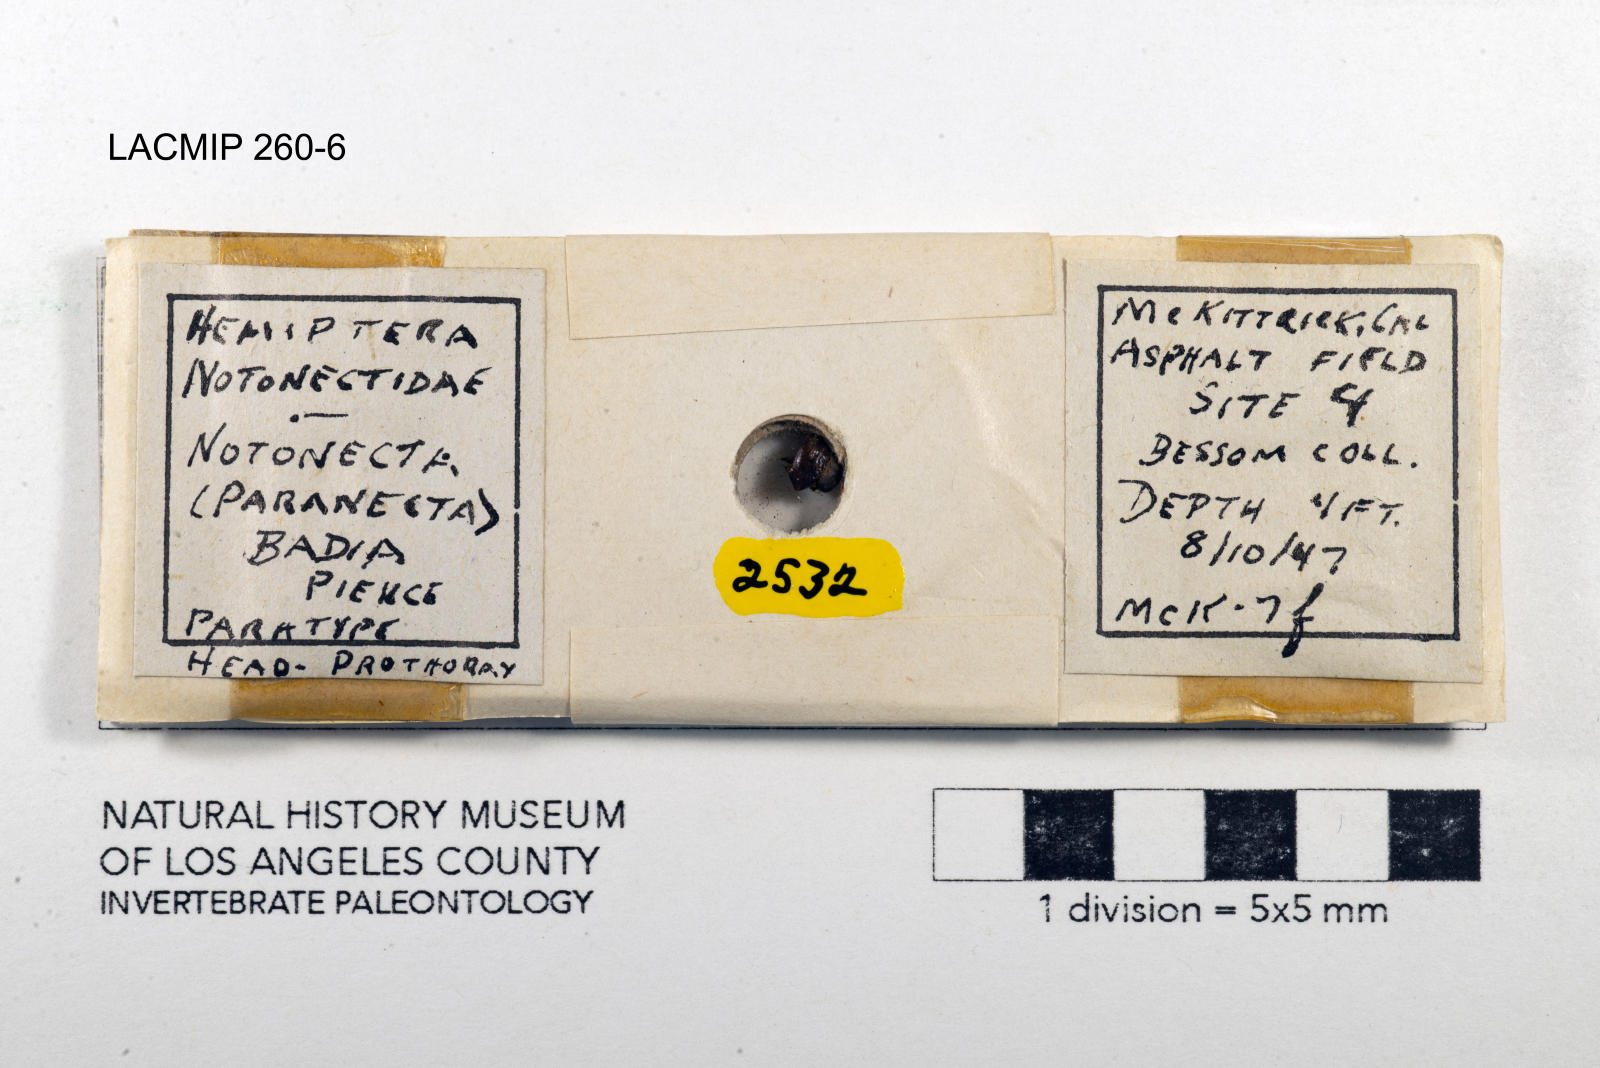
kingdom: Animalia
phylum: Arthropoda
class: Insecta
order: Hemiptera
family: Notonectidae
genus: Notonecta
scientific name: Notonecta unifasciata
